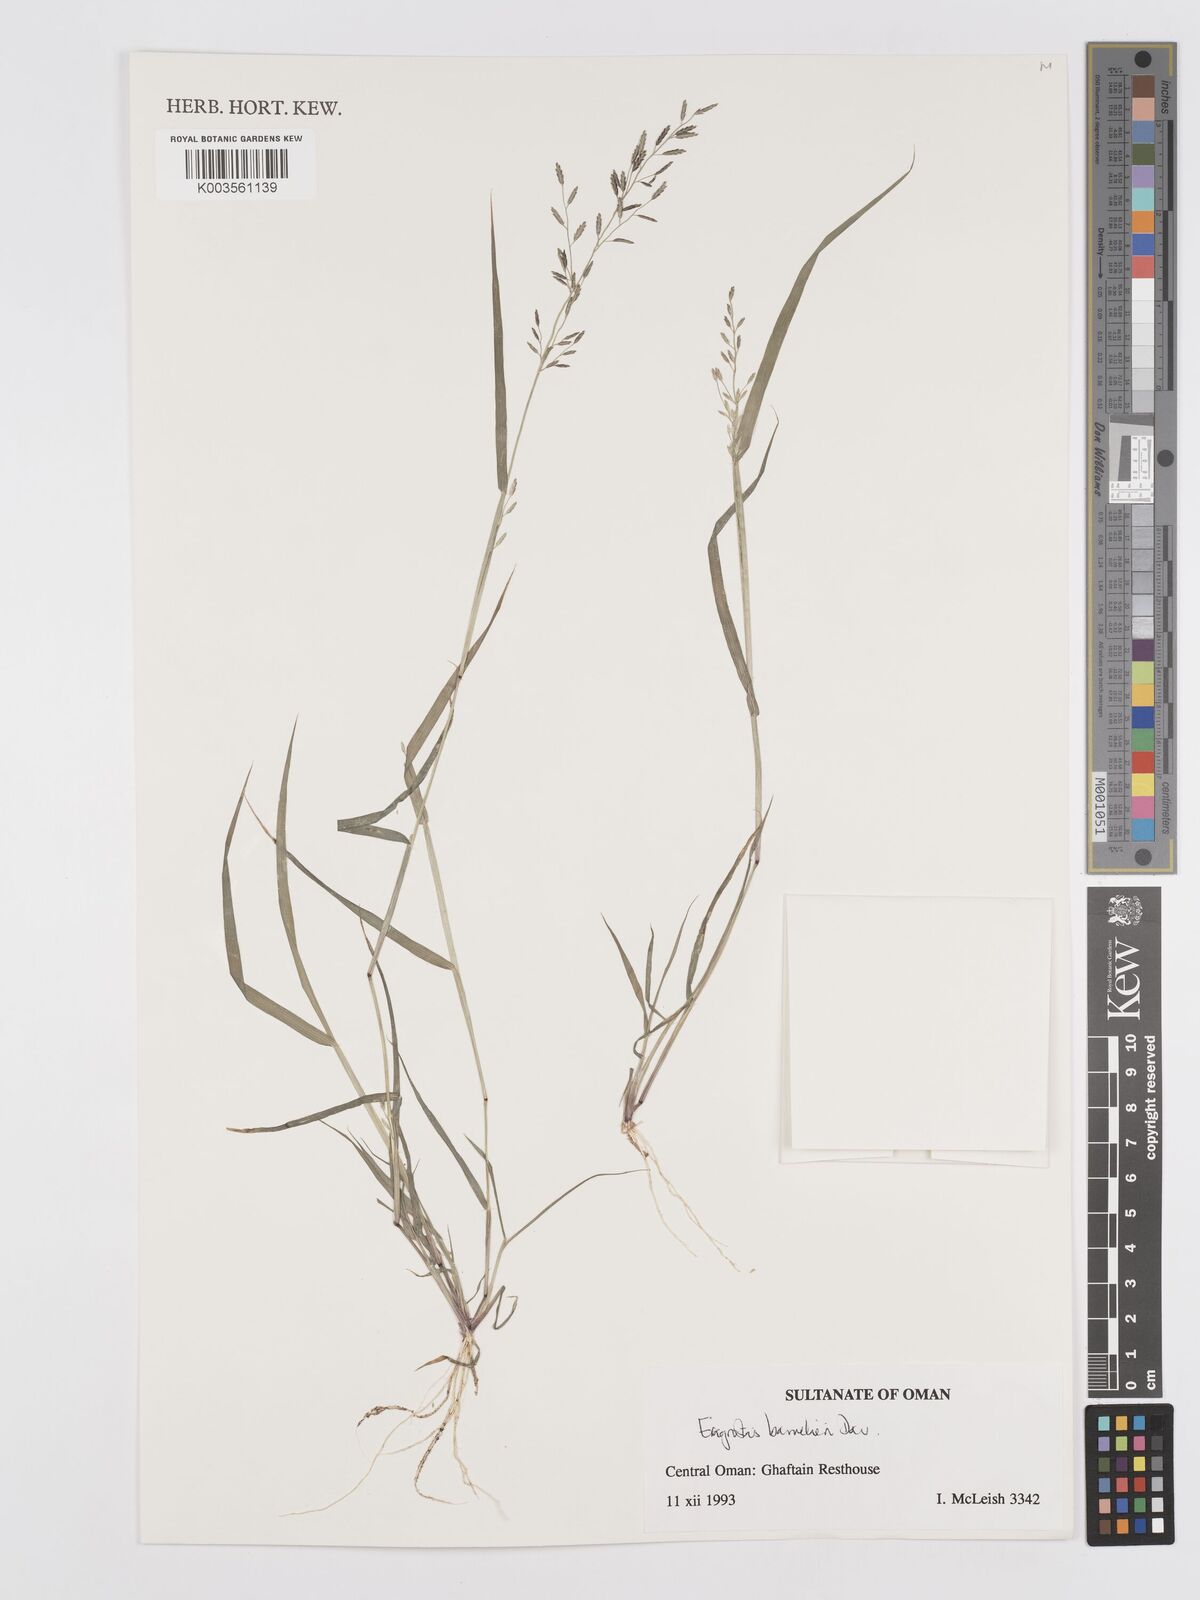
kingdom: Plantae
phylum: Tracheophyta
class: Liliopsida
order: Poales
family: Poaceae
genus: Eragrostis
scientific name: Eragrostis barrelieri
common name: Mediterranean lovegrass
